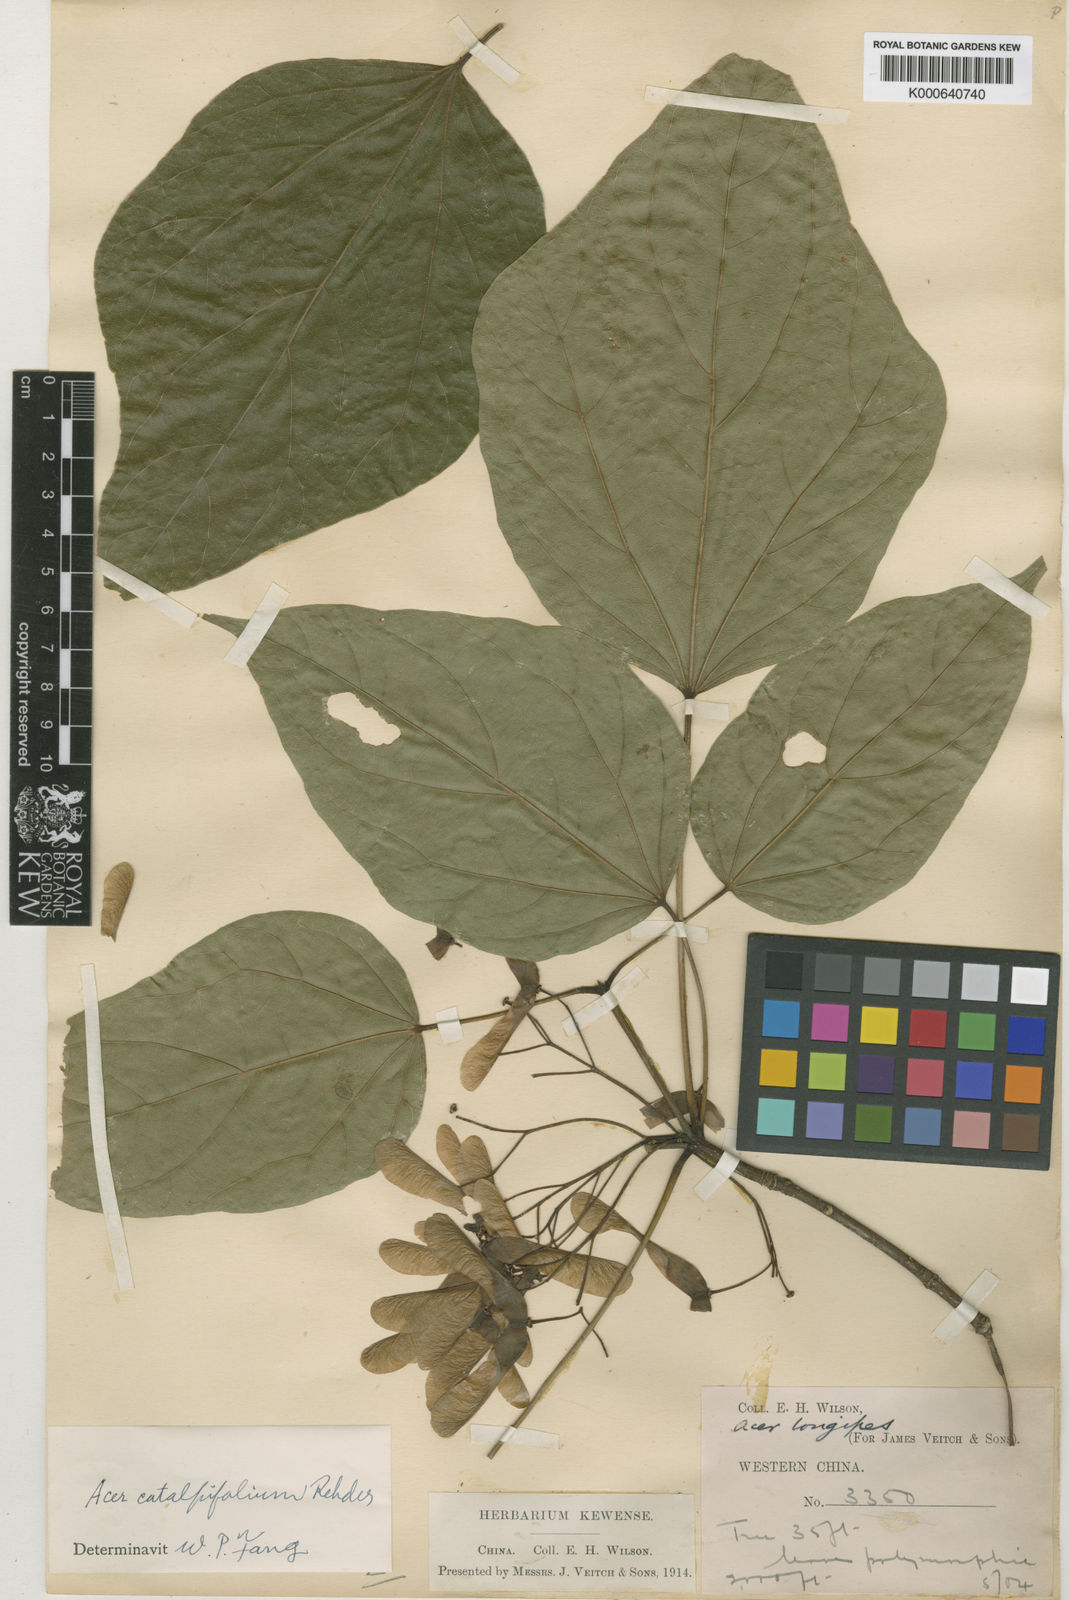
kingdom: Plantae
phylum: Tracheophyta
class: Magnoliopsida
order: Sapindales
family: Sapindaceae
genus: Acer
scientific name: Acer amplum
